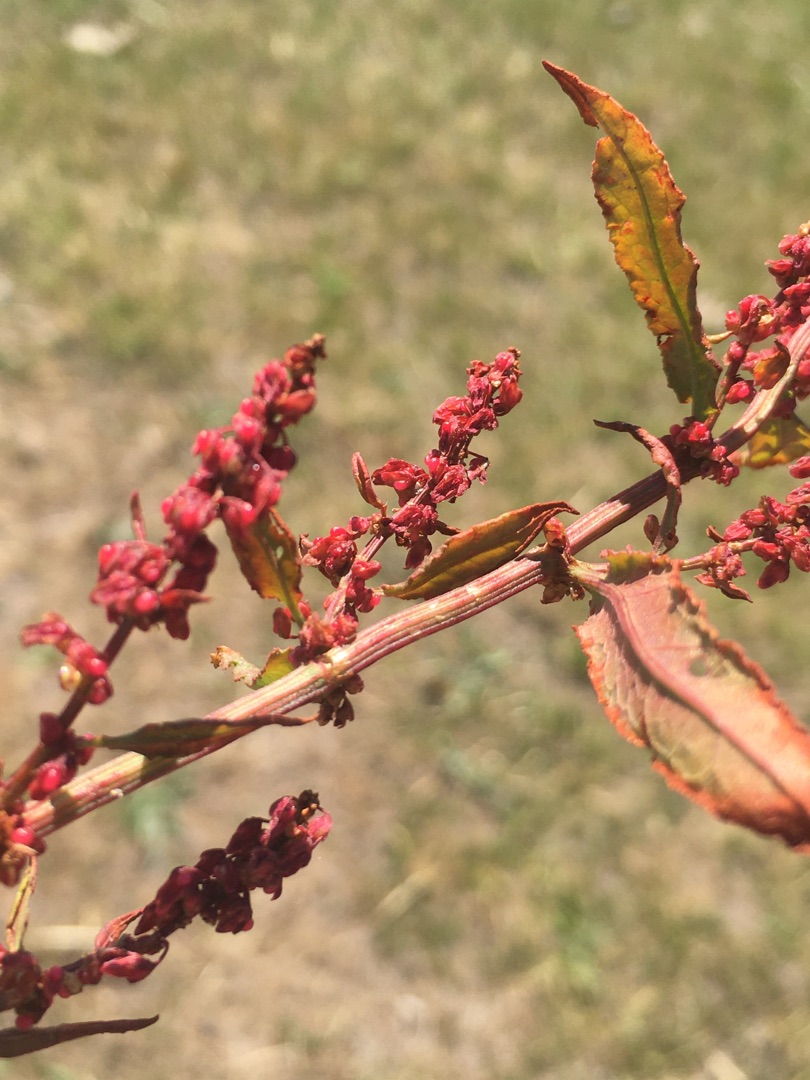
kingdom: Plantae
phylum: Tracheophyta
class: Magnoliopsida
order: Caryophyllales
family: Polygonaceae
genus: Rumex
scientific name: Rumex conglomeratus
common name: Nøgle-skræppe
